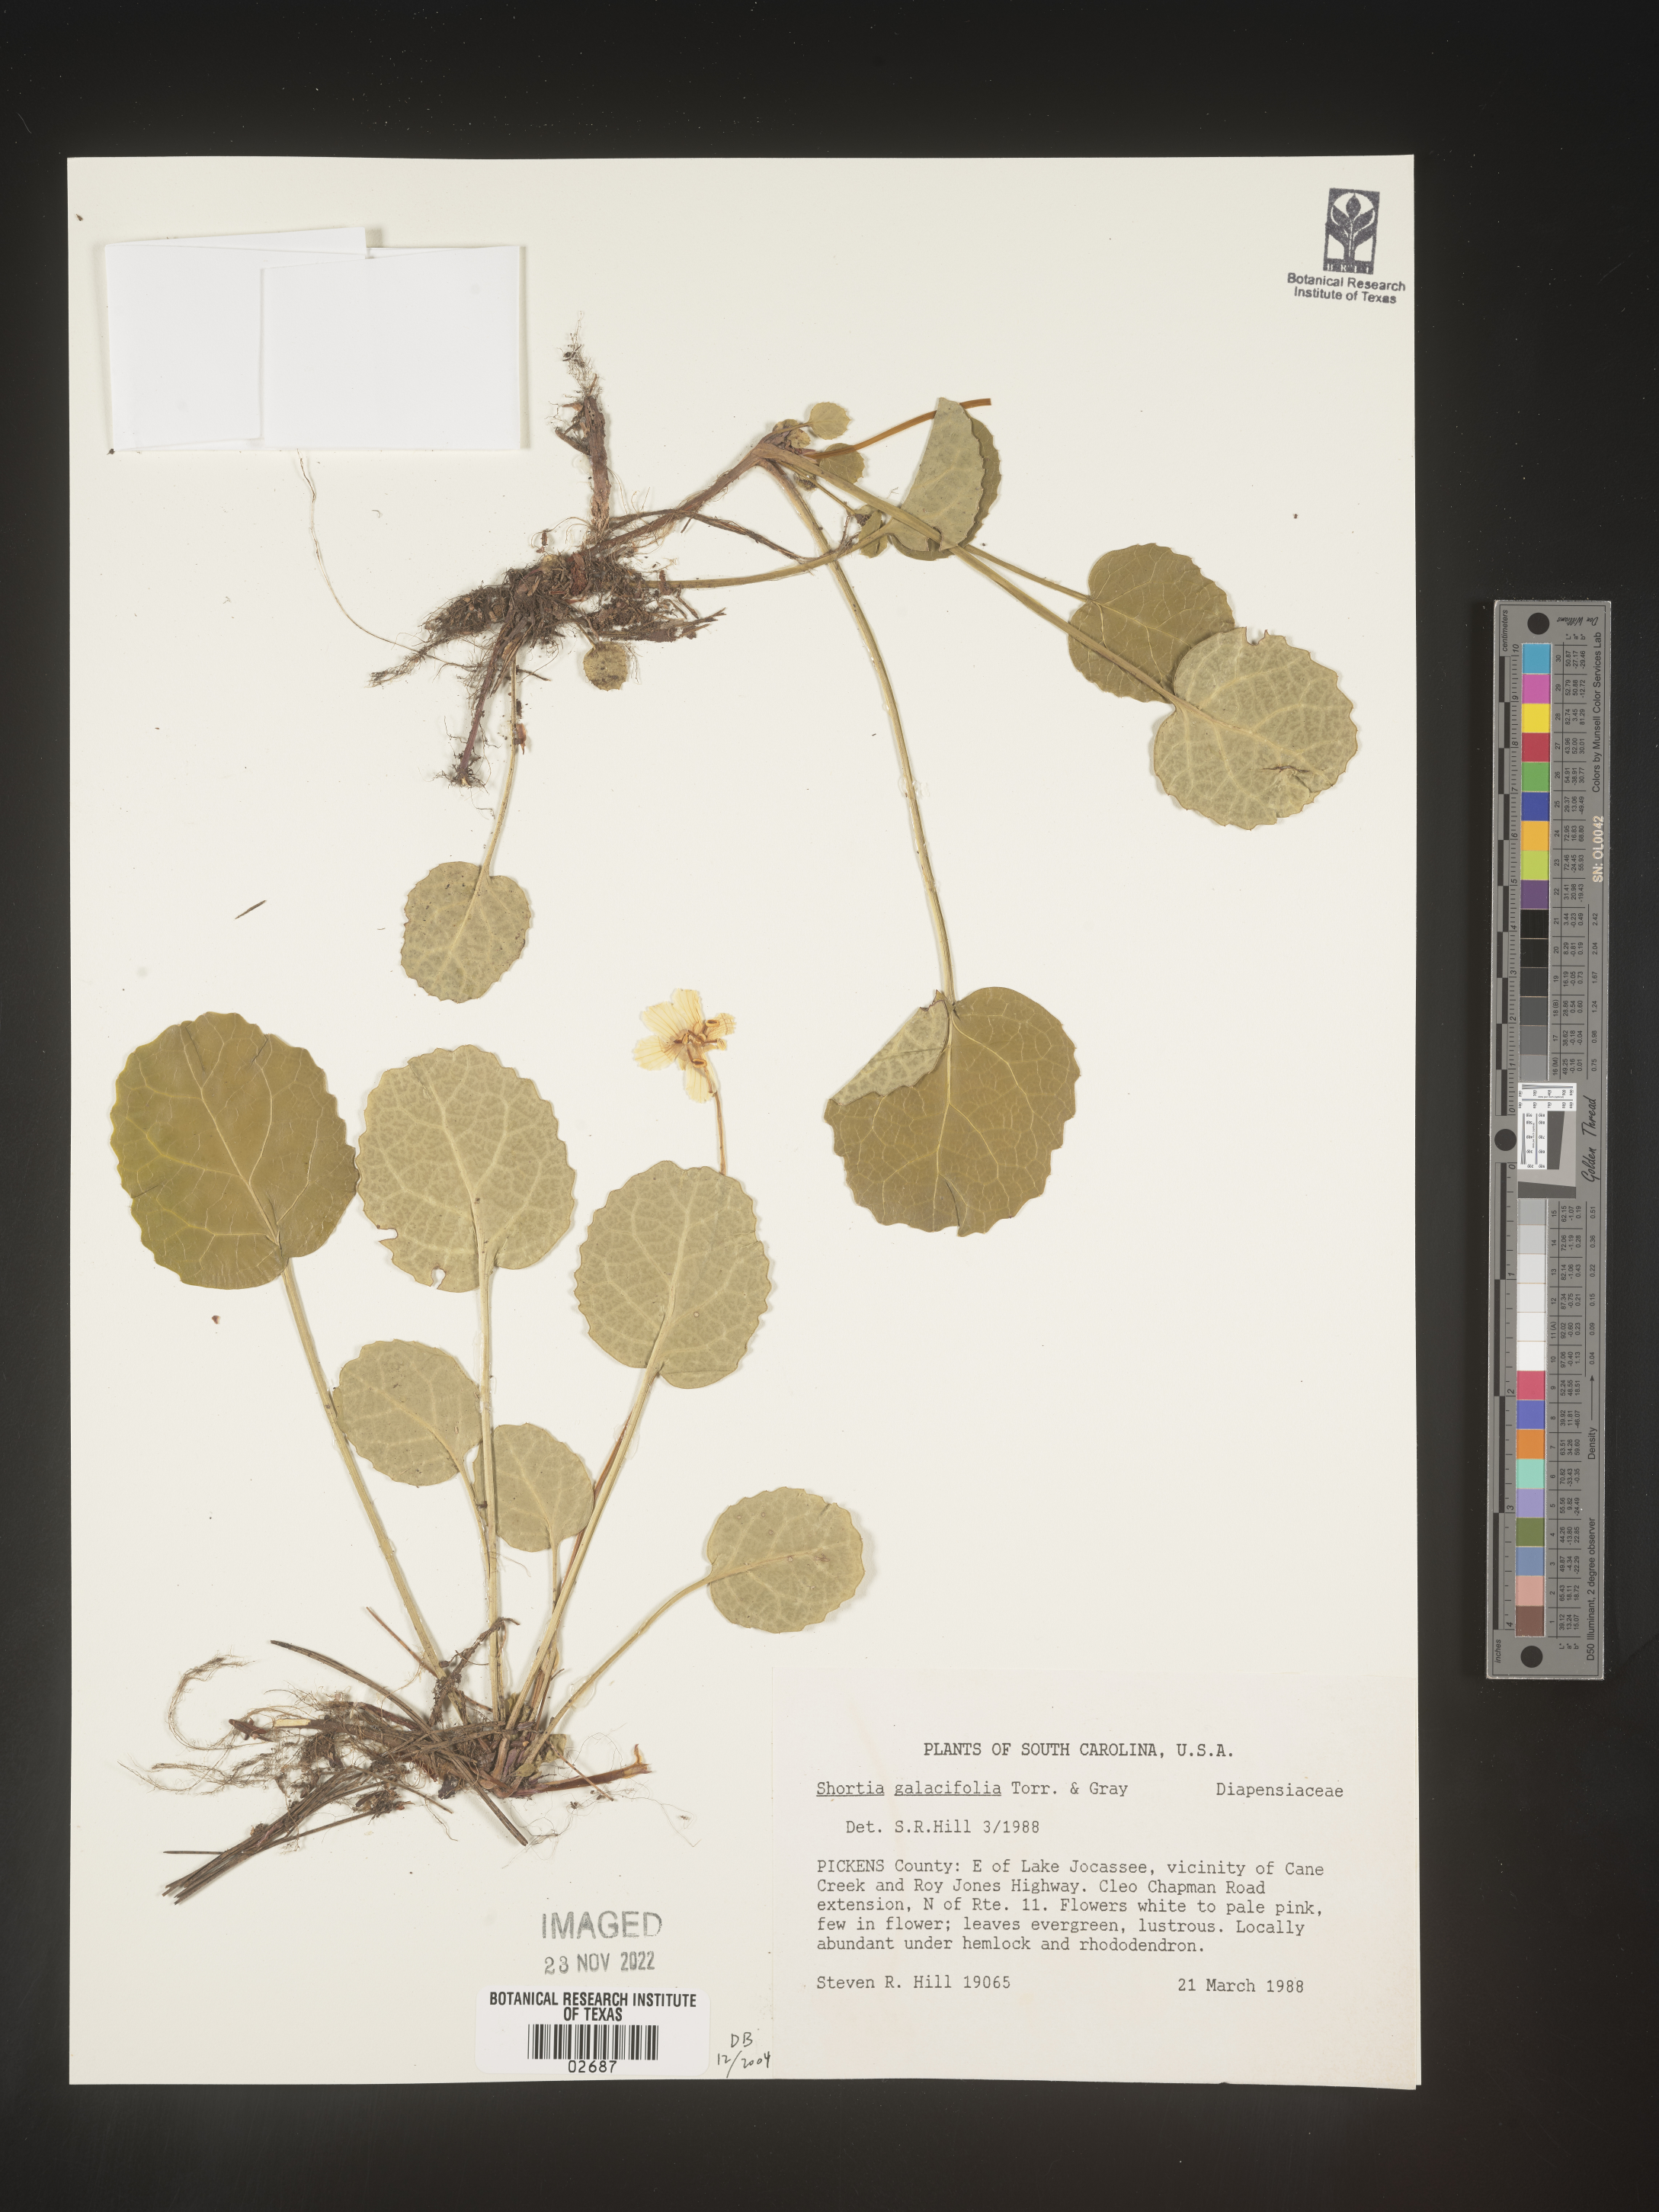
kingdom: Plantae
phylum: Tracheophyta
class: Magnoliopsida
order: Ericales
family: Diapensiaceae
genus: Shortia
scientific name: Shortia galacifolia
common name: Shortia
